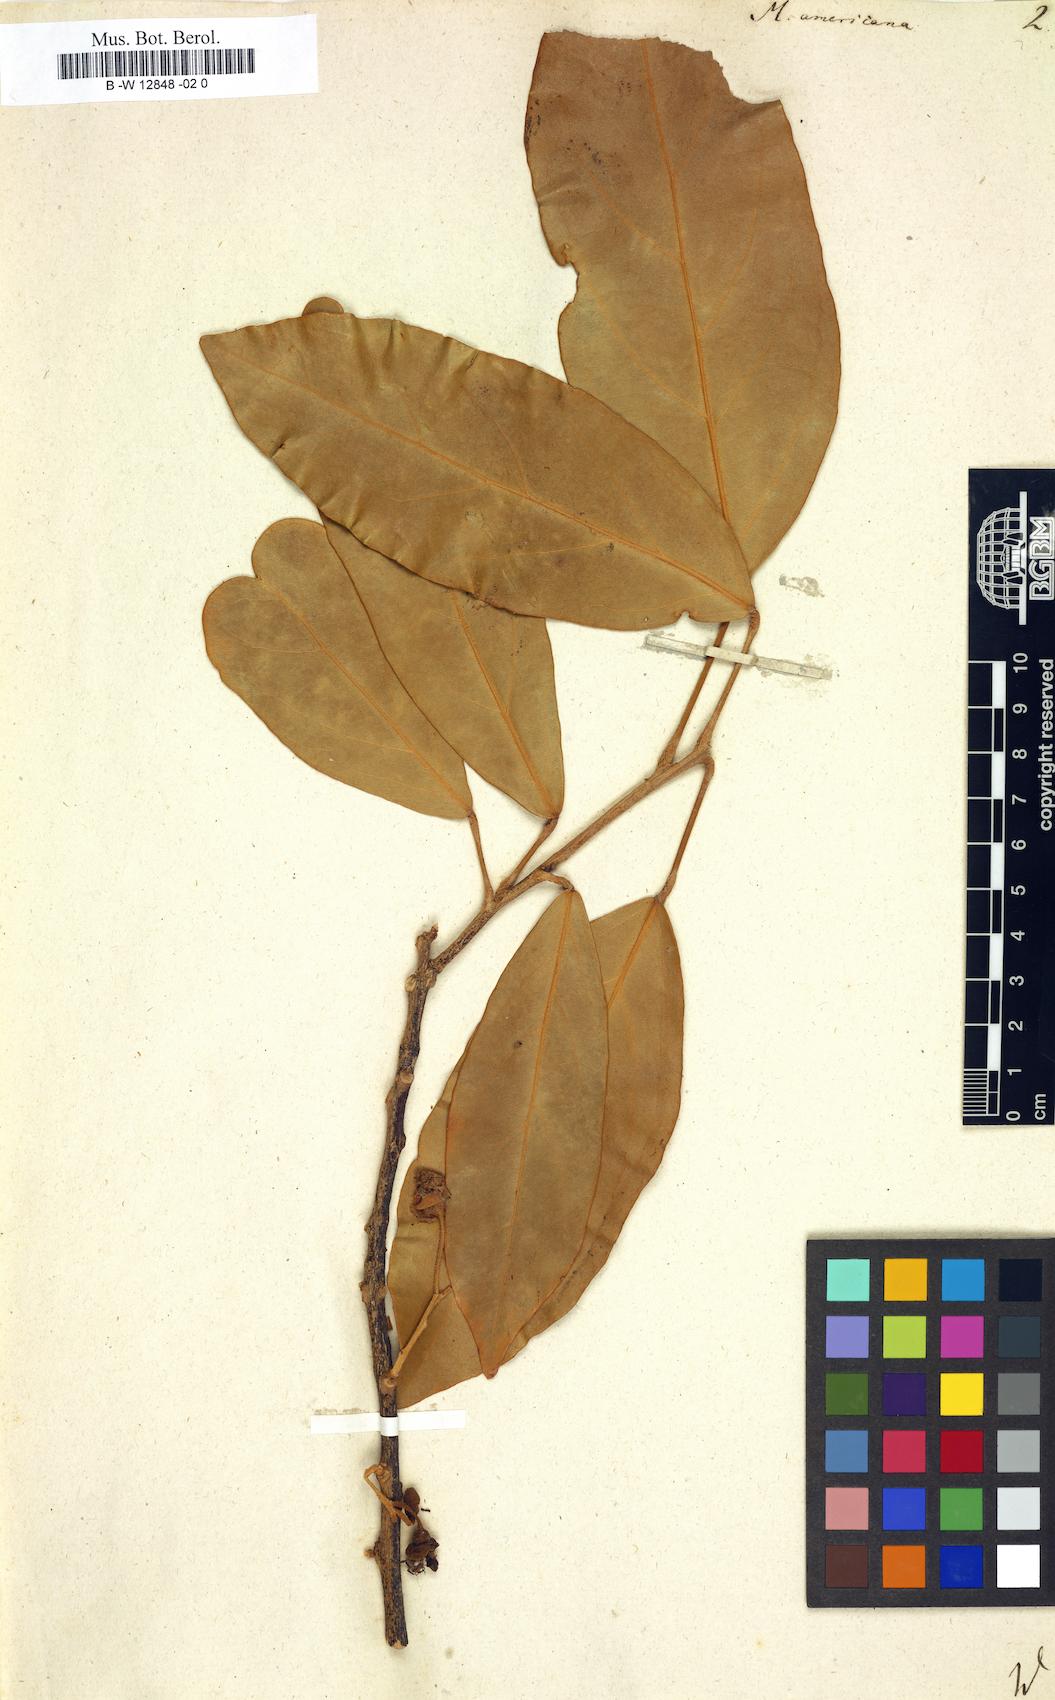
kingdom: Plantae
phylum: Tracheophyta
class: Magnoliopsida
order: Brassicales
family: Capparaceae
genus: Morisonia
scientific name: Morisonia americana
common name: Wild mesple
